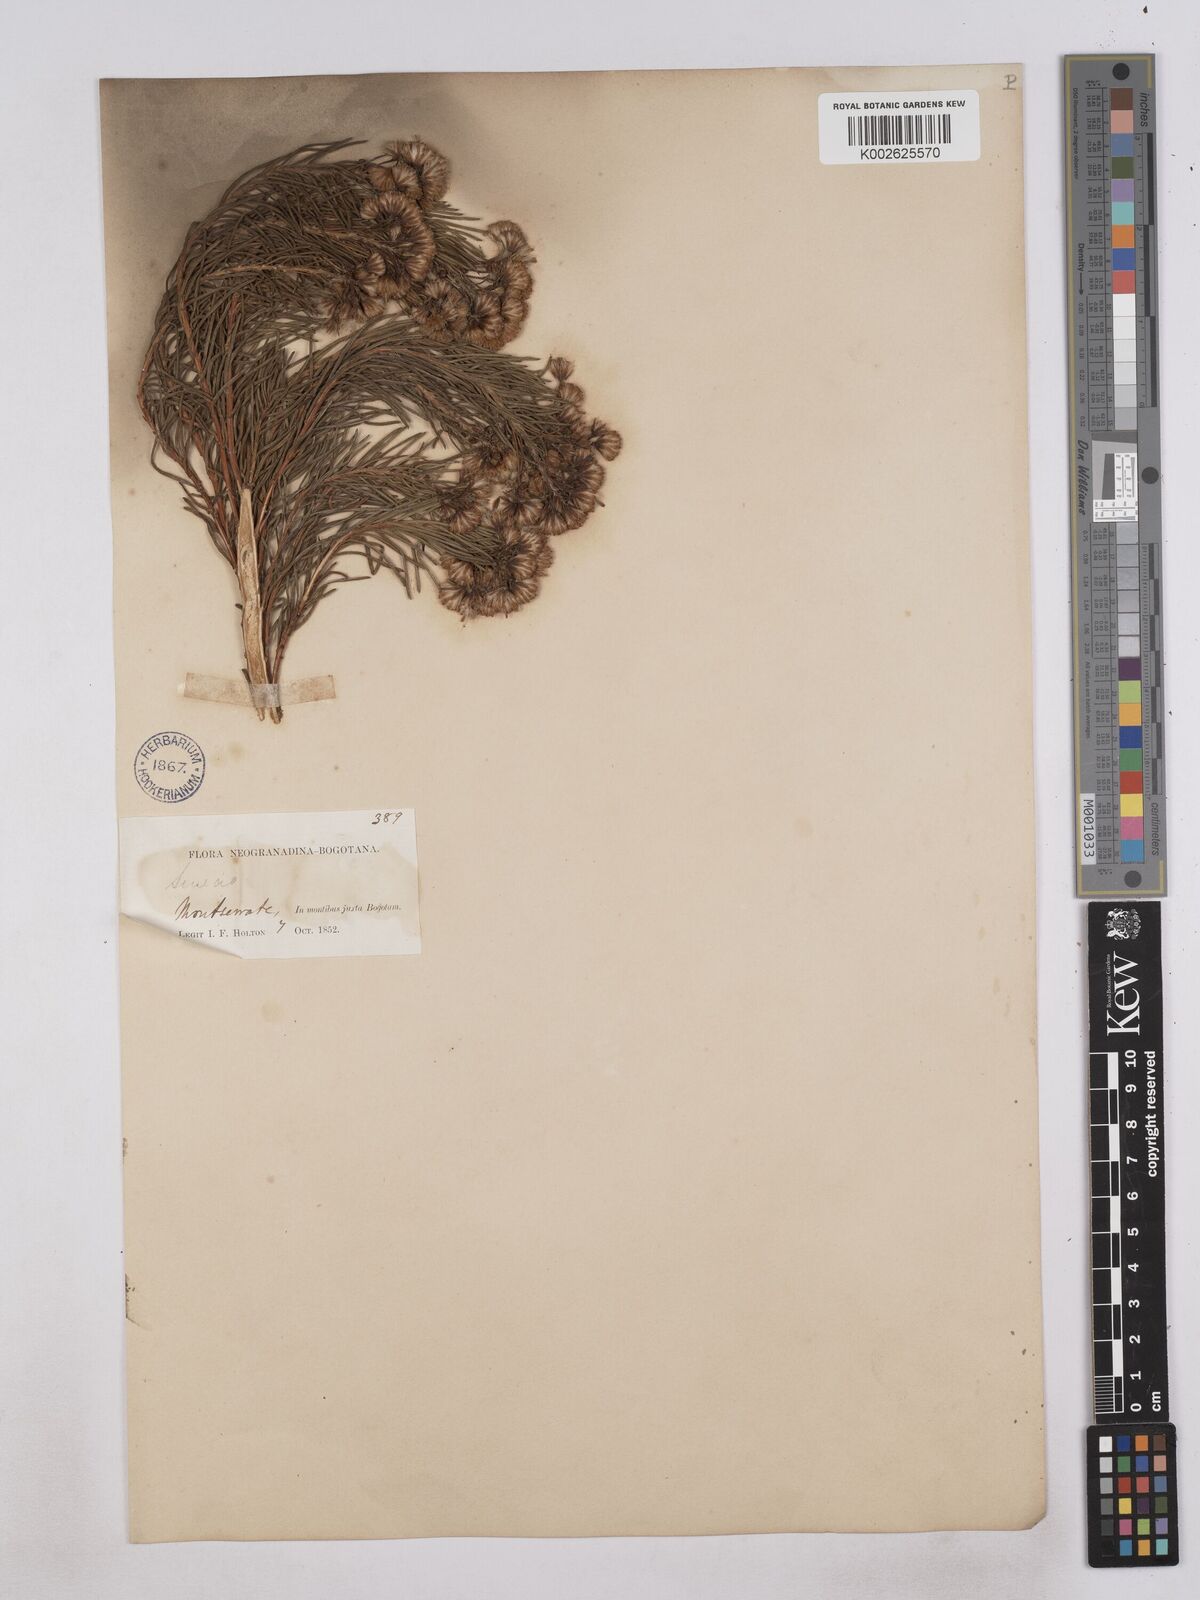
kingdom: Plantae
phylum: Tracheophyta
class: Magnoliopsida
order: Asterales
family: Asteraceae
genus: Monticalia
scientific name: Monticalia abietina
